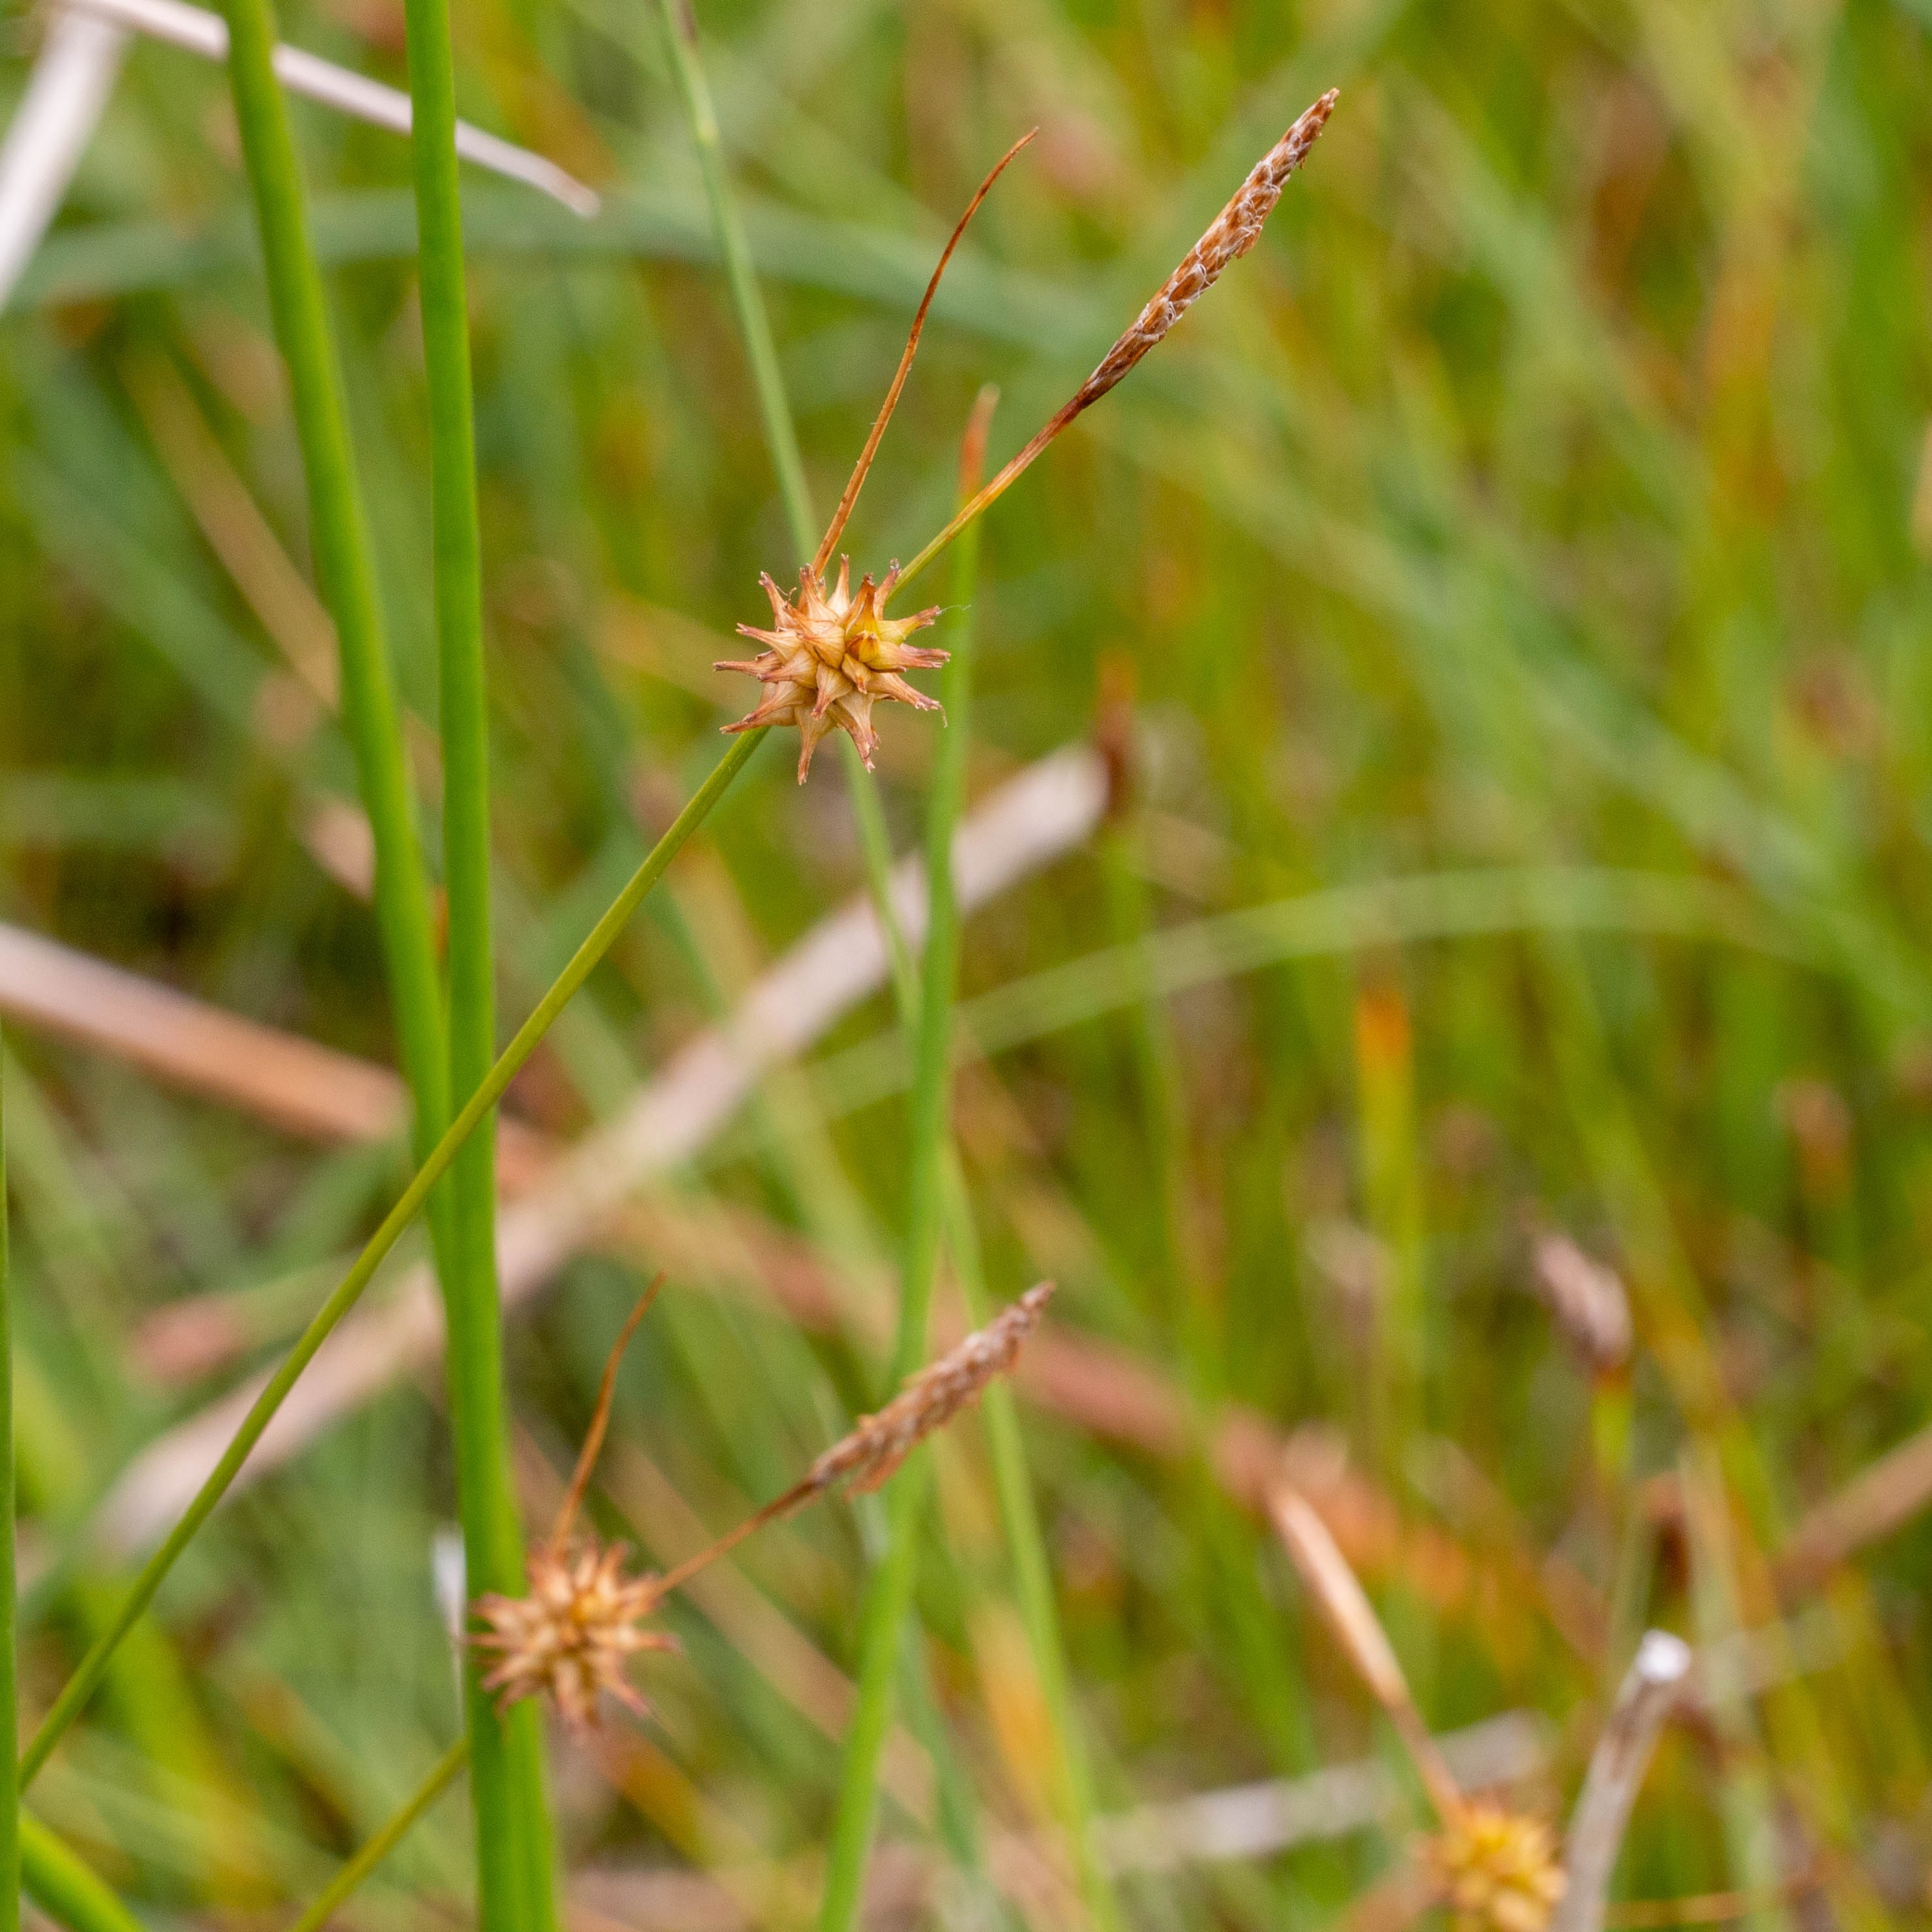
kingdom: Plantae
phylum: Tracheophyta
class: Liliopsida
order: Poales
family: Cyperaceae
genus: Carex
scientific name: Carex lepidocarpa
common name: Krognæb-star
